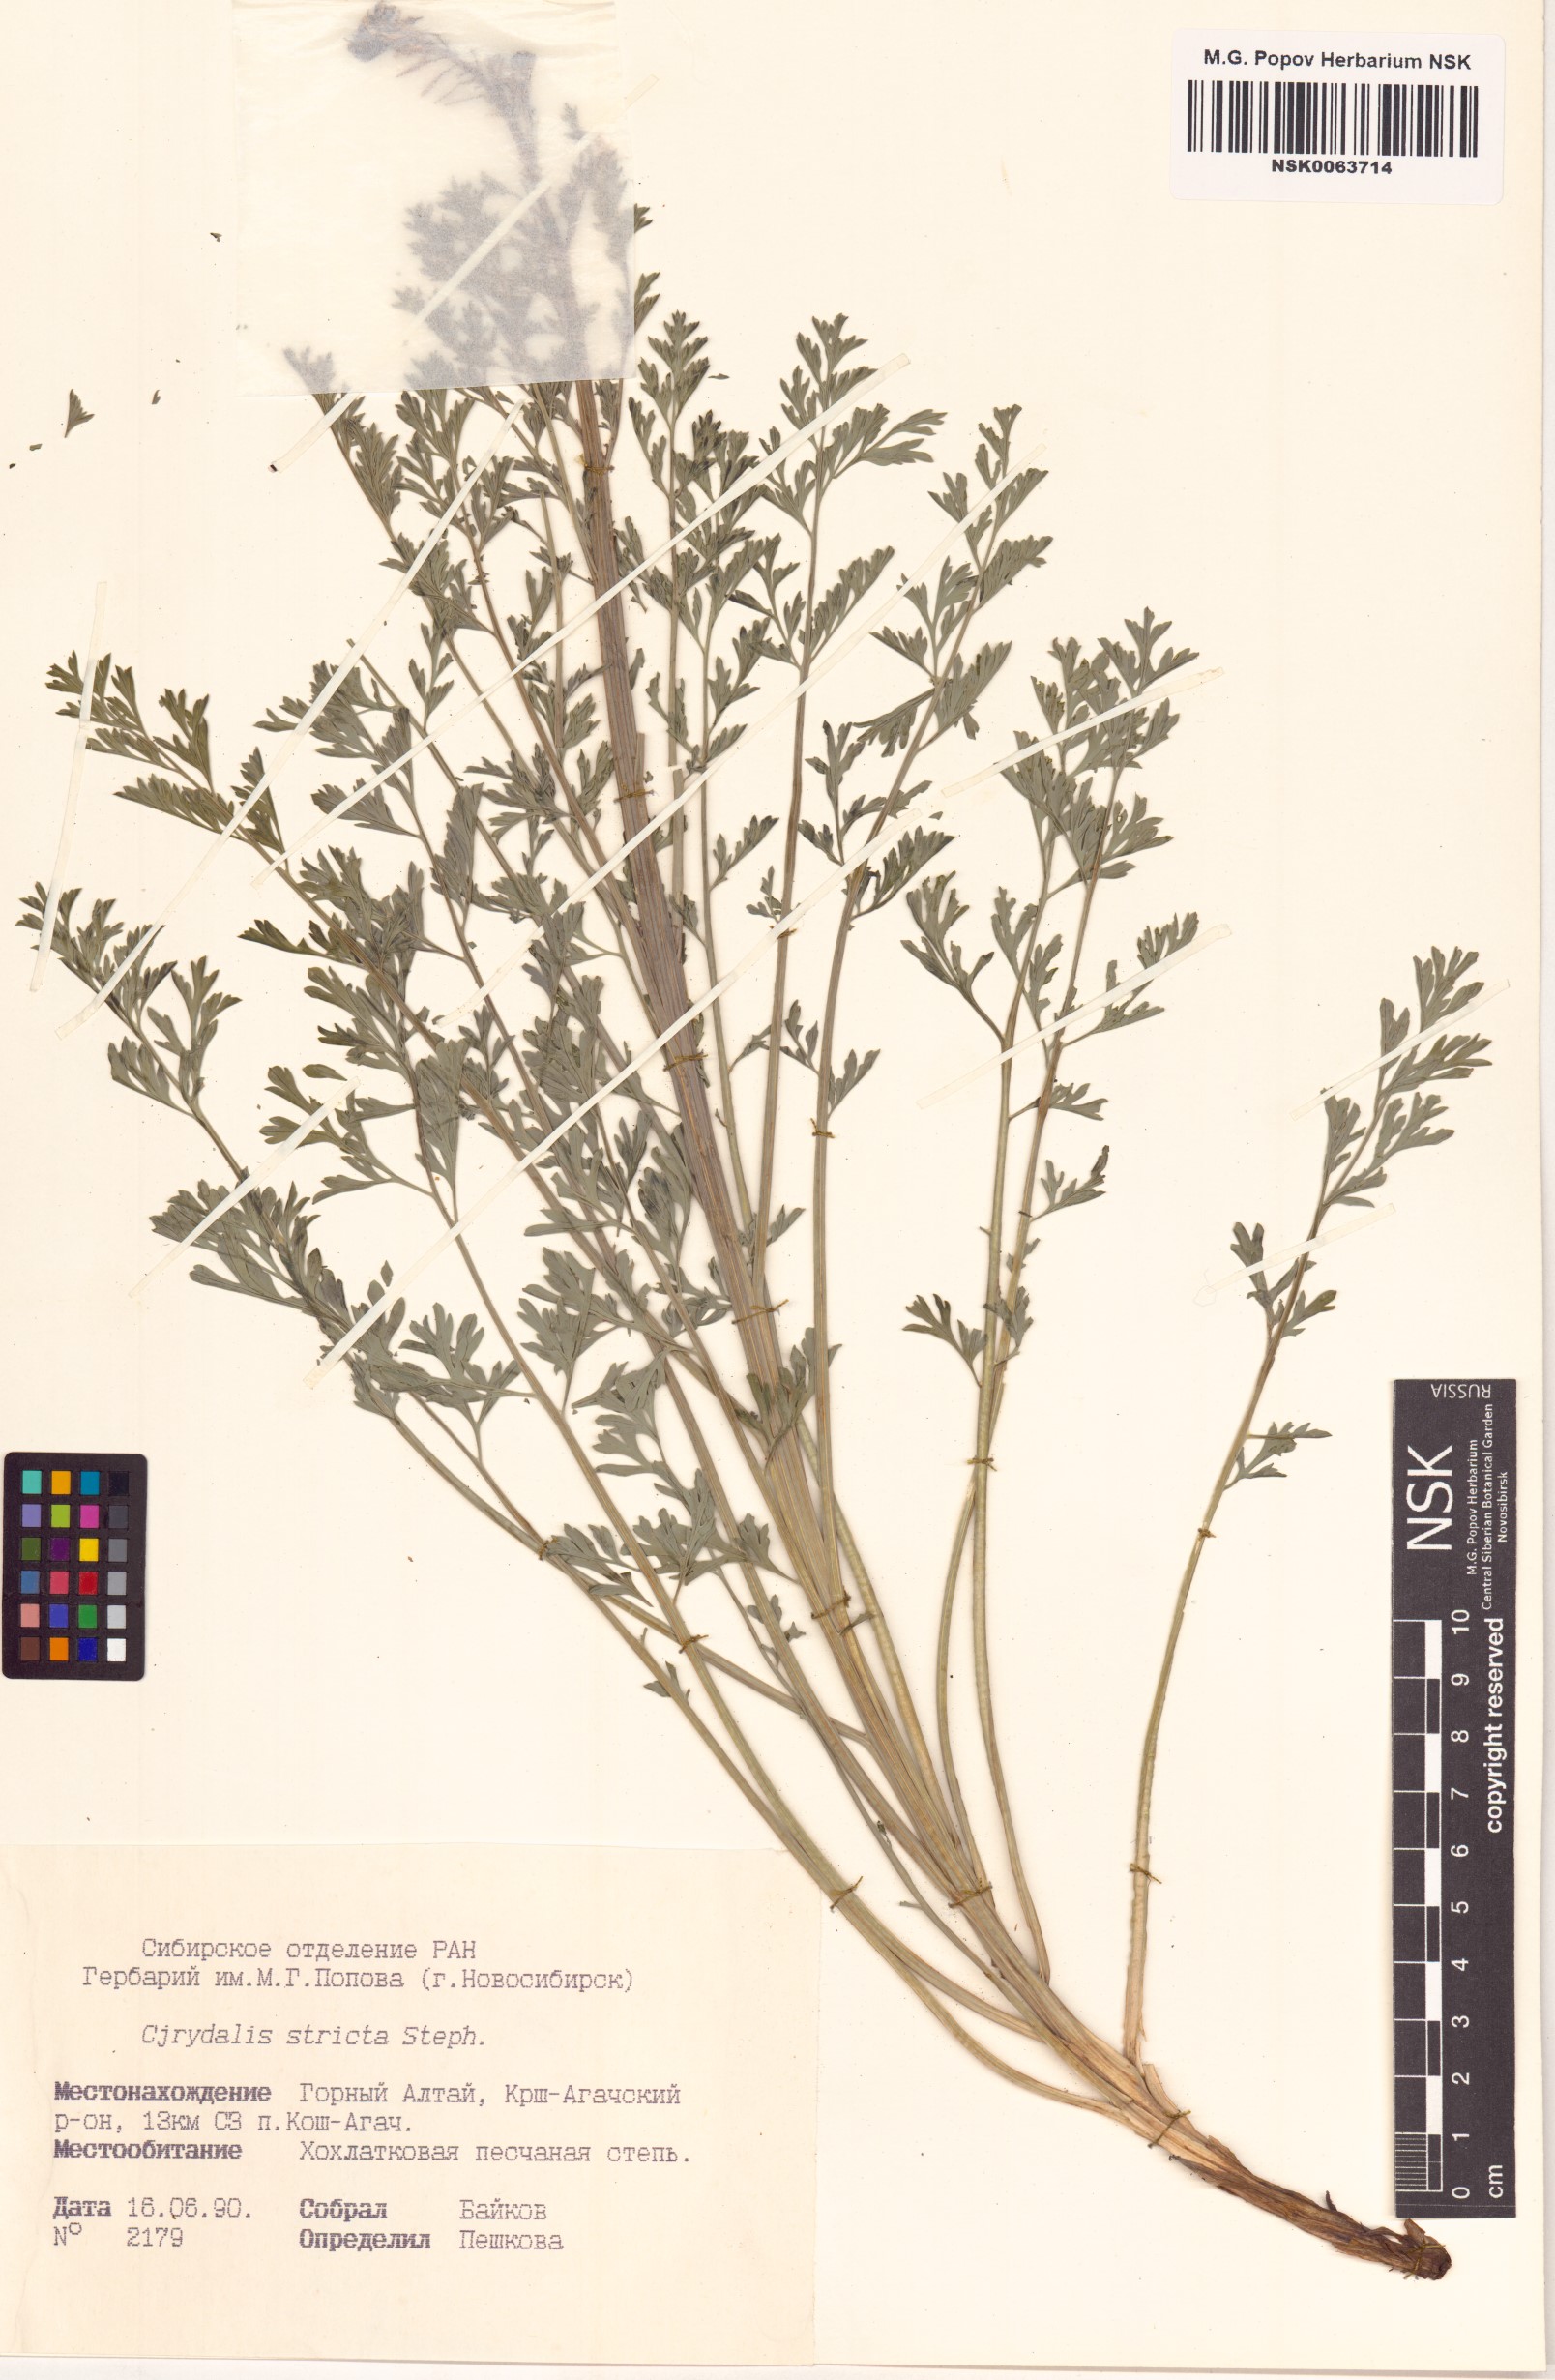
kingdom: Plantae
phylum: Tracheophyta
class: Magnoliopsida
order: Ranunculales
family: Papaveraceae
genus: Corydalis
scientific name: Corydalis stricta
